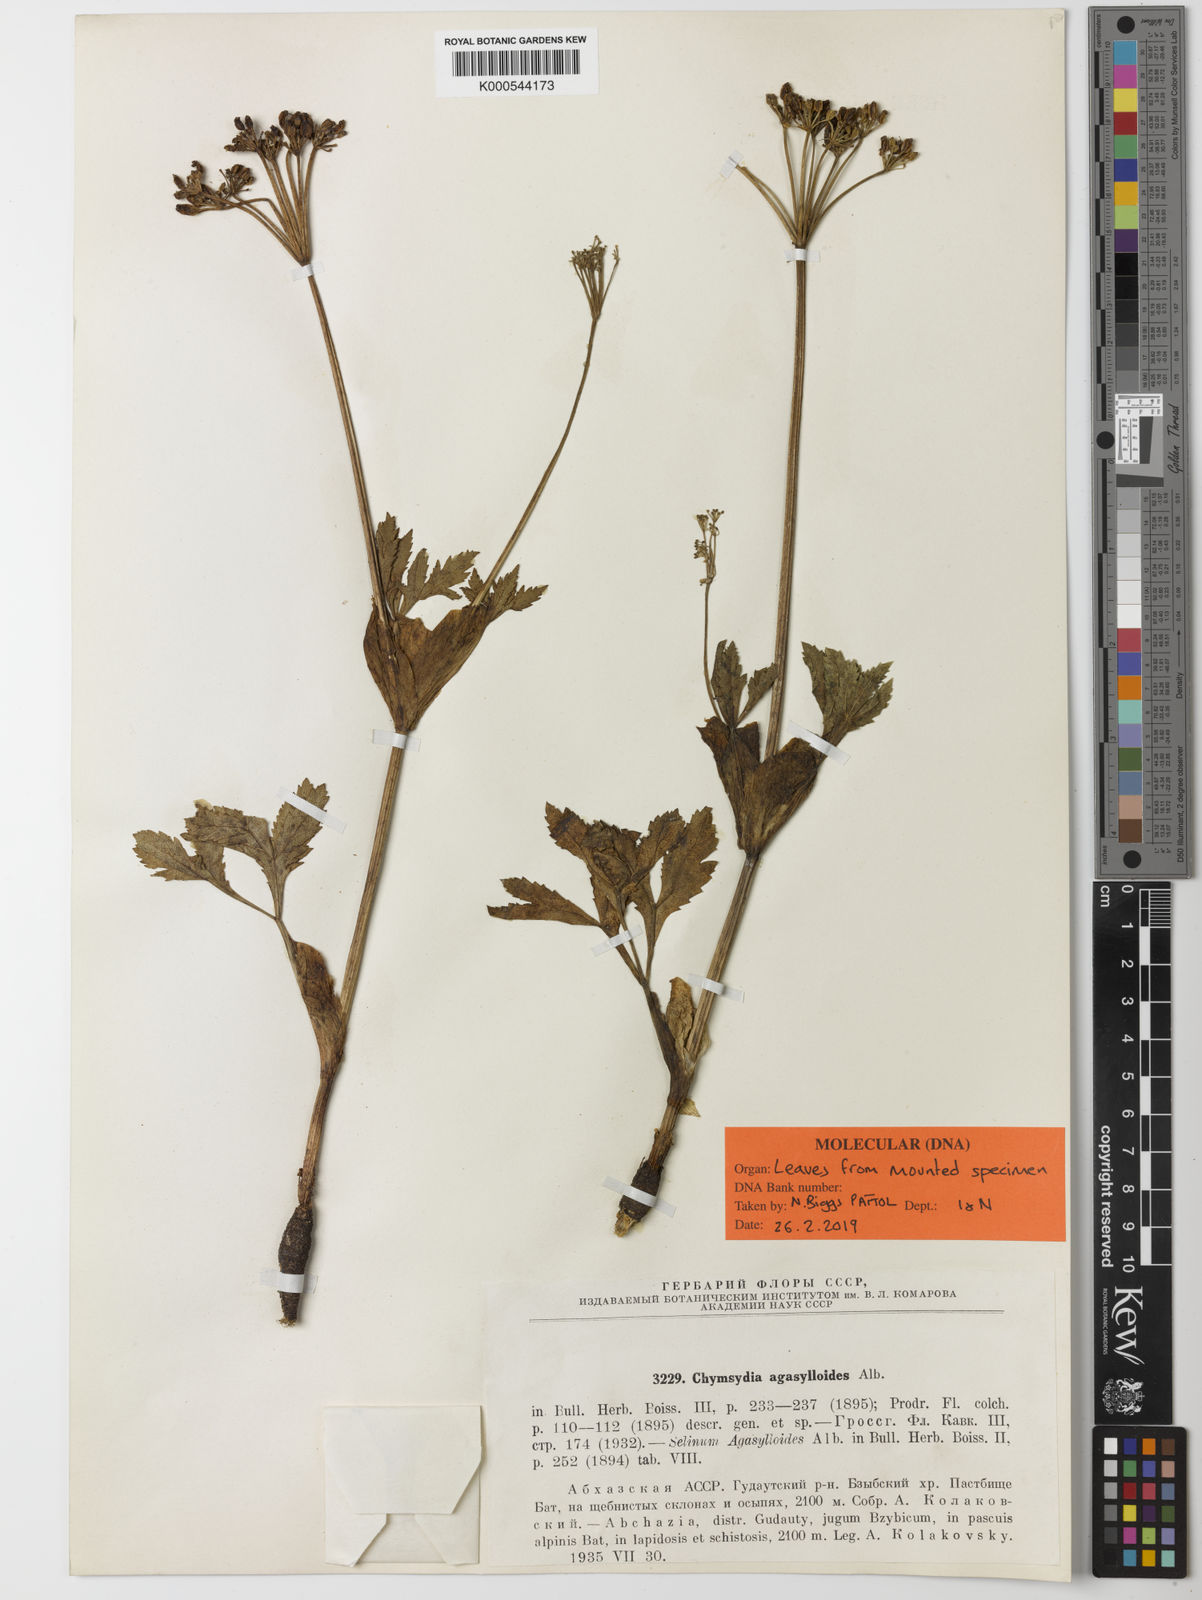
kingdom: Plantae
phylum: Tracheophyta
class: Magnoliopsida
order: Apiales
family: Apiaceae
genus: Chymsydia
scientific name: Chymsydia agasylloides
